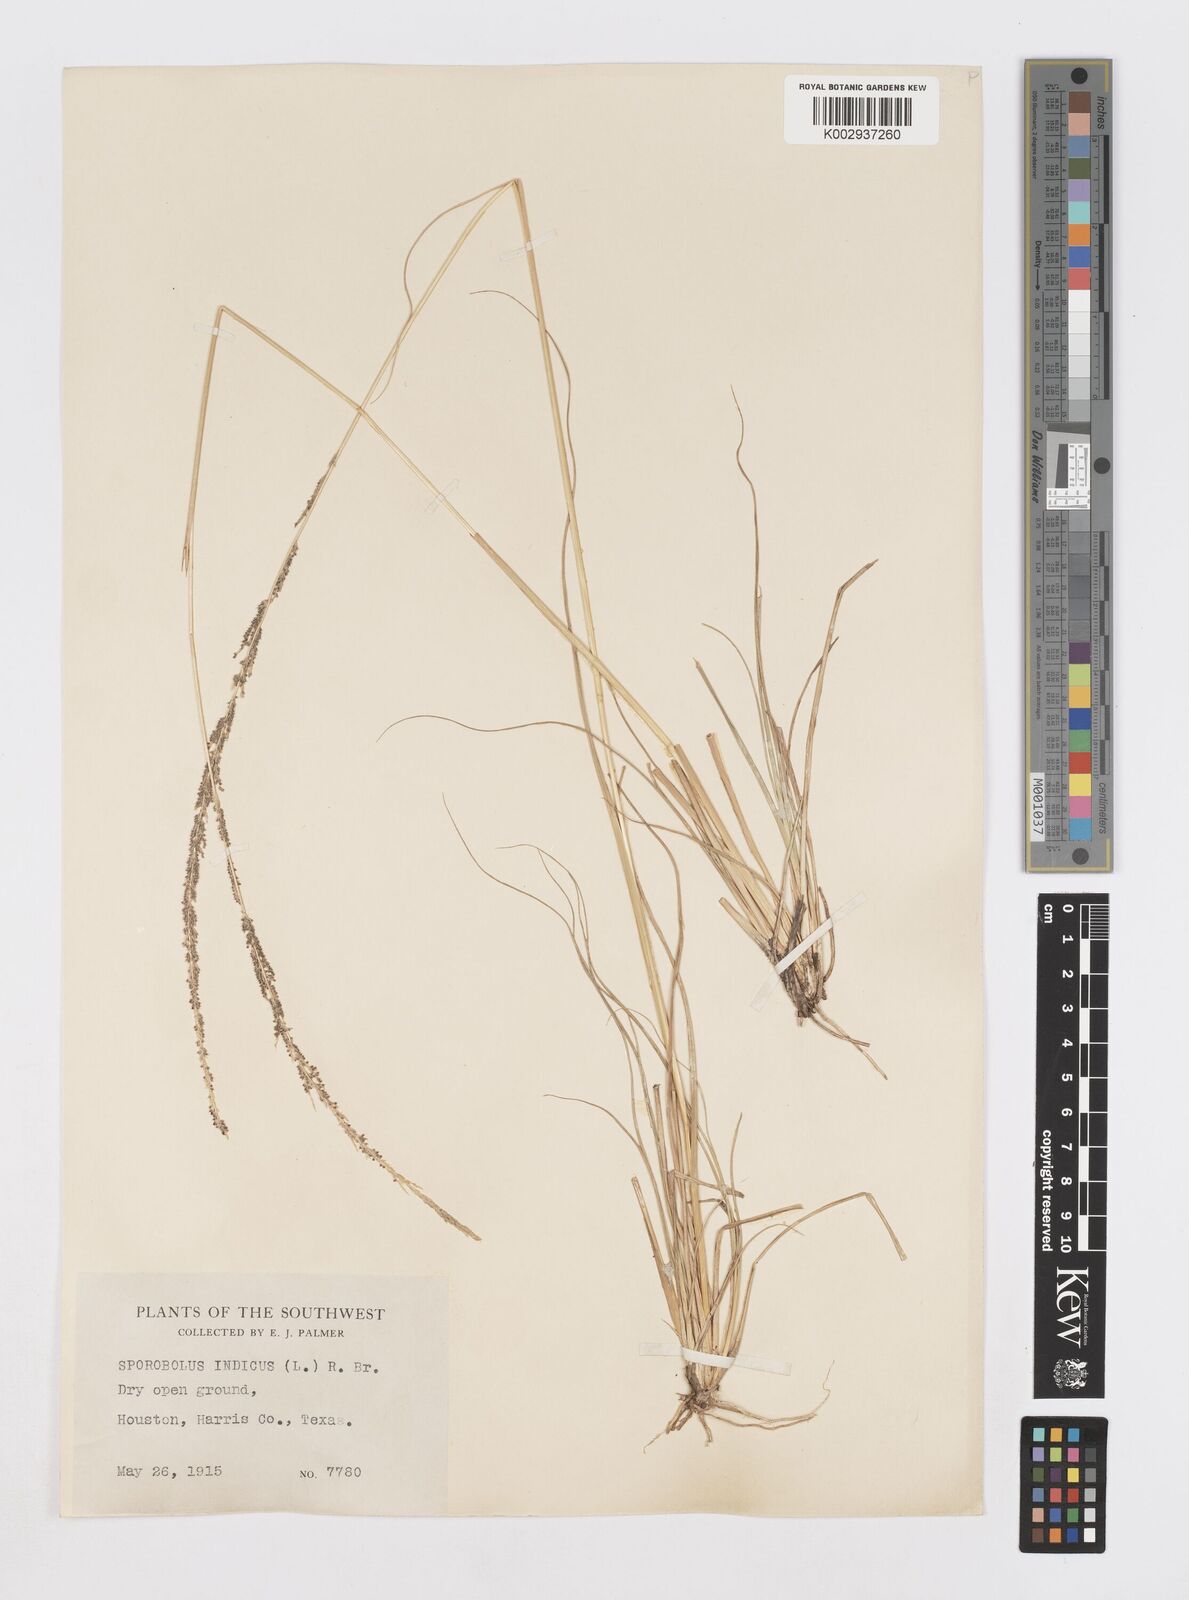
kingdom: Plantae
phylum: Tracheophyta
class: Liliopsida
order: Poales
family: Poaceae
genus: Sporobolus
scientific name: Sporobolus indicus
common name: Smut grass
